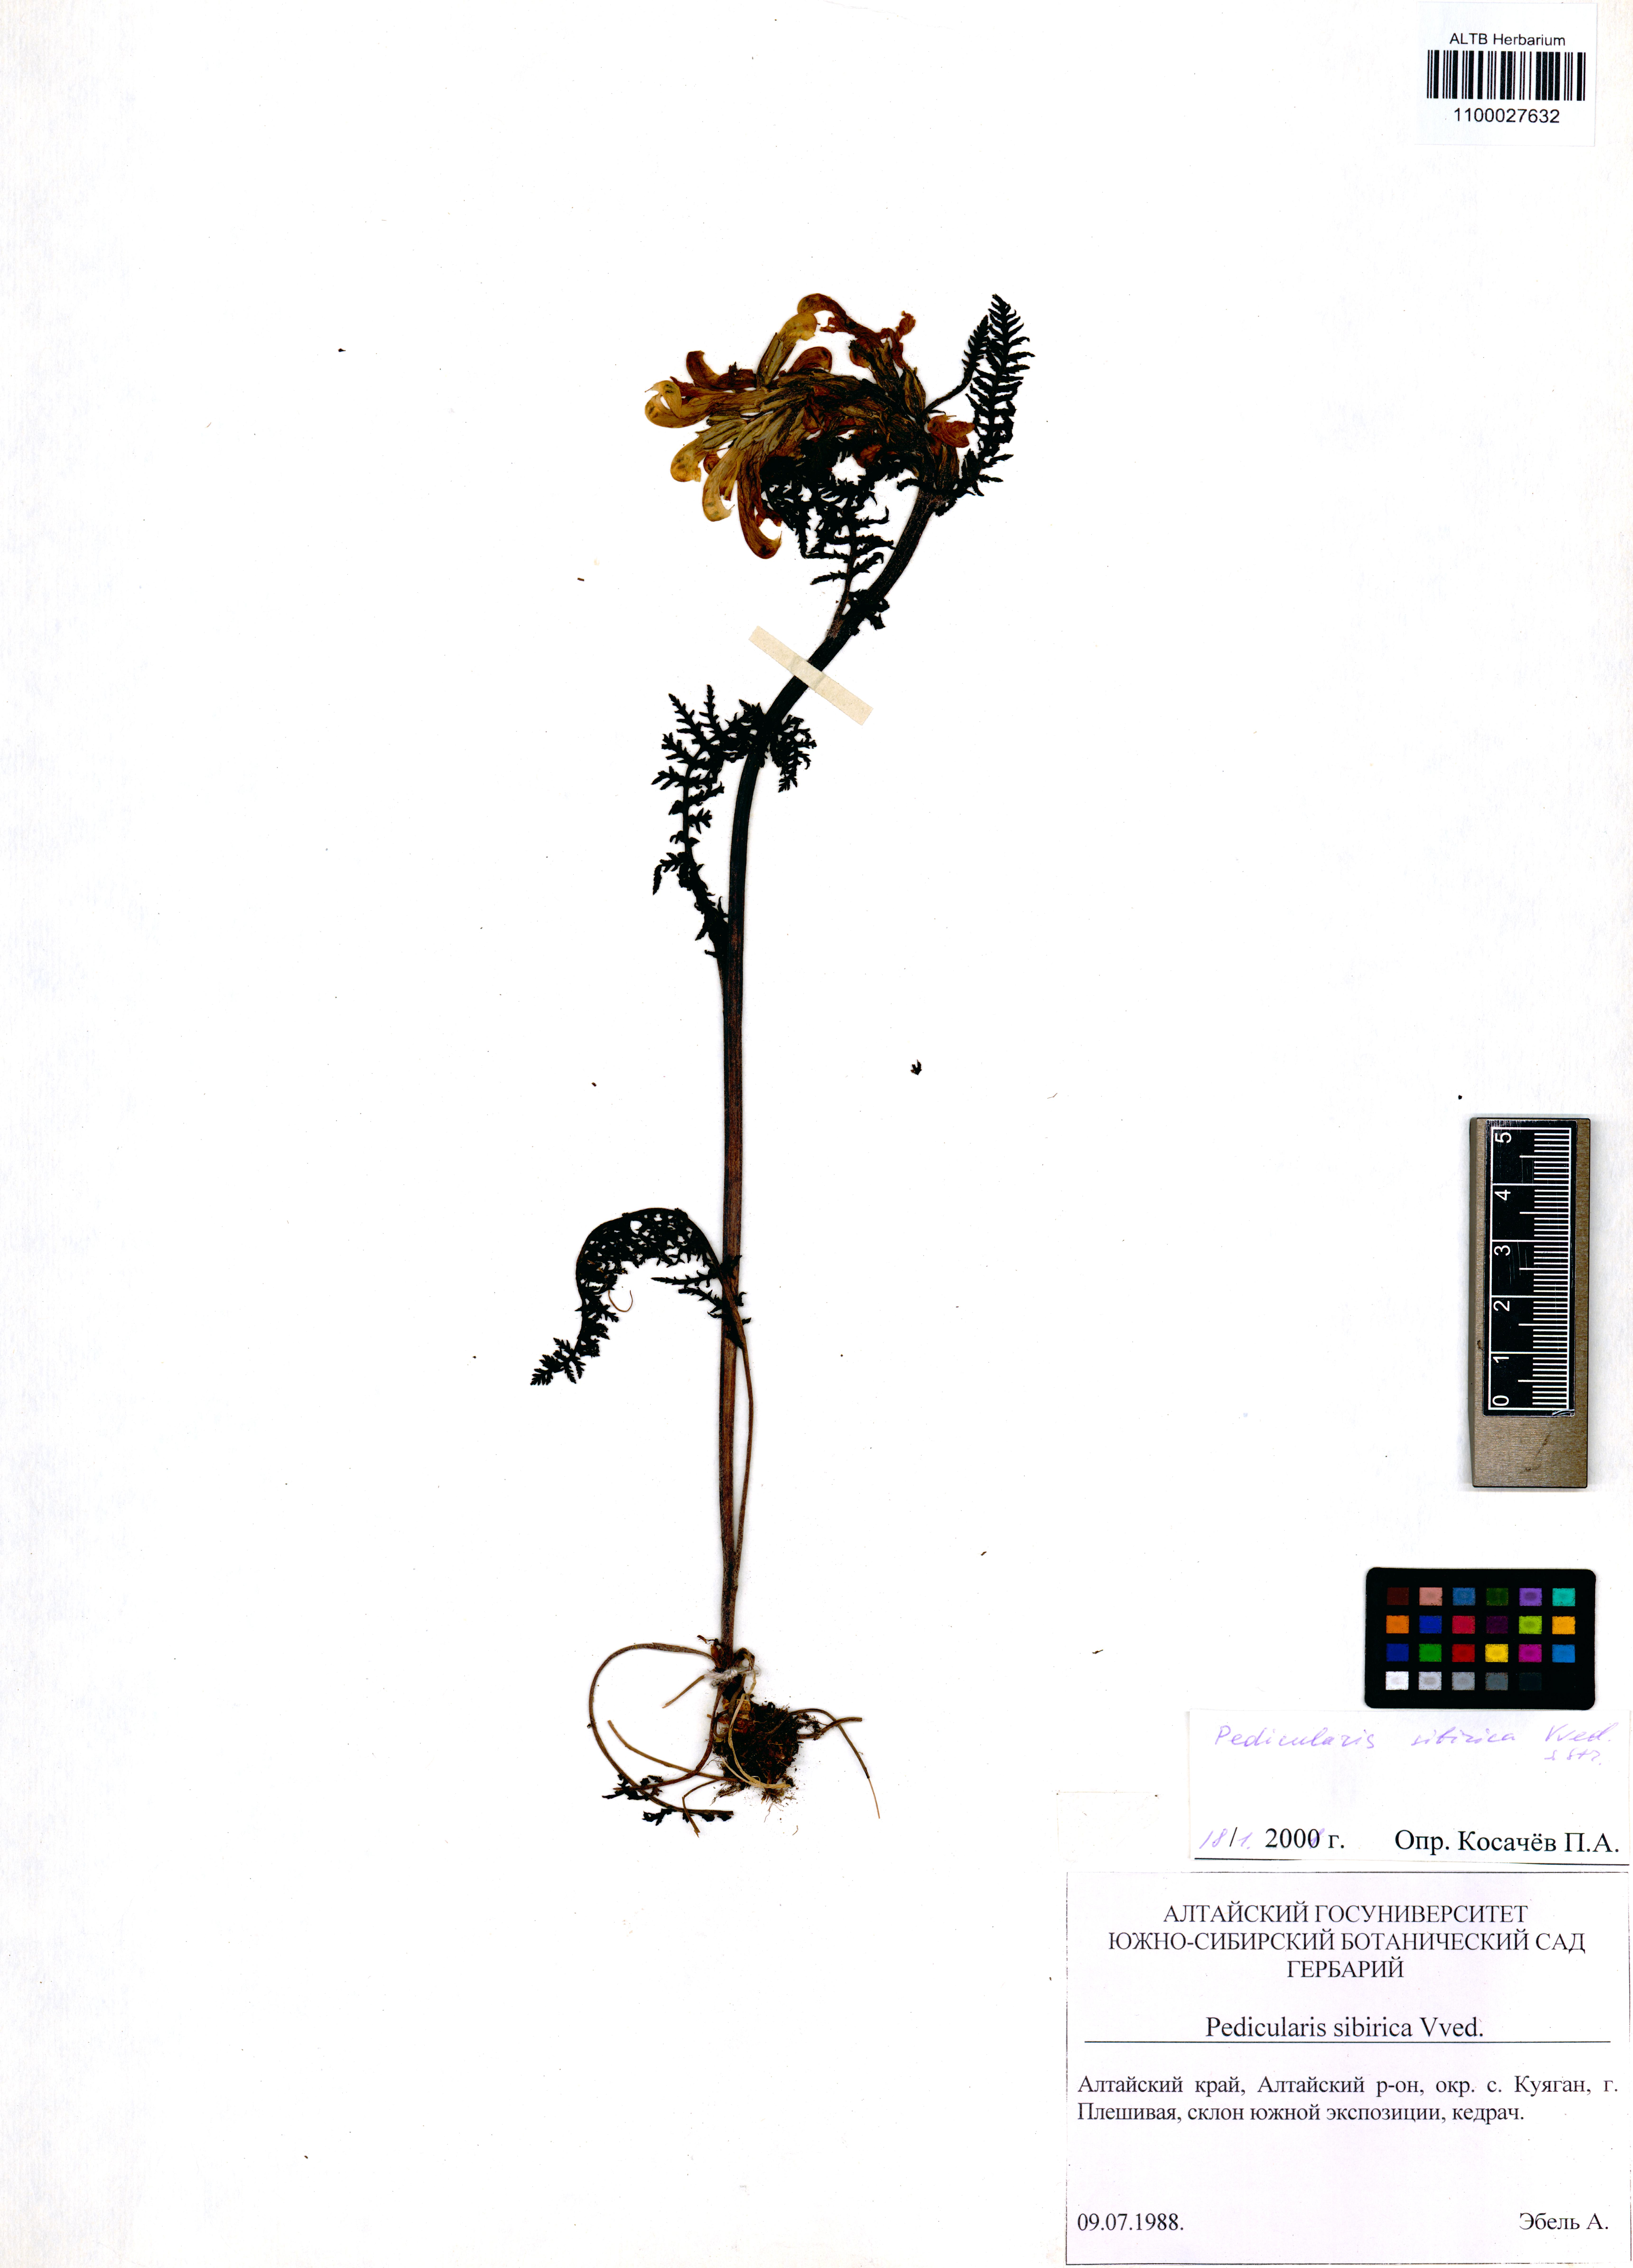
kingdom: Plantae
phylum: Tracheophyta
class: Magnoliopsida
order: Lamiales
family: Orobanchaceae
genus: Pedicularis
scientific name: Pedicularis sibirica
